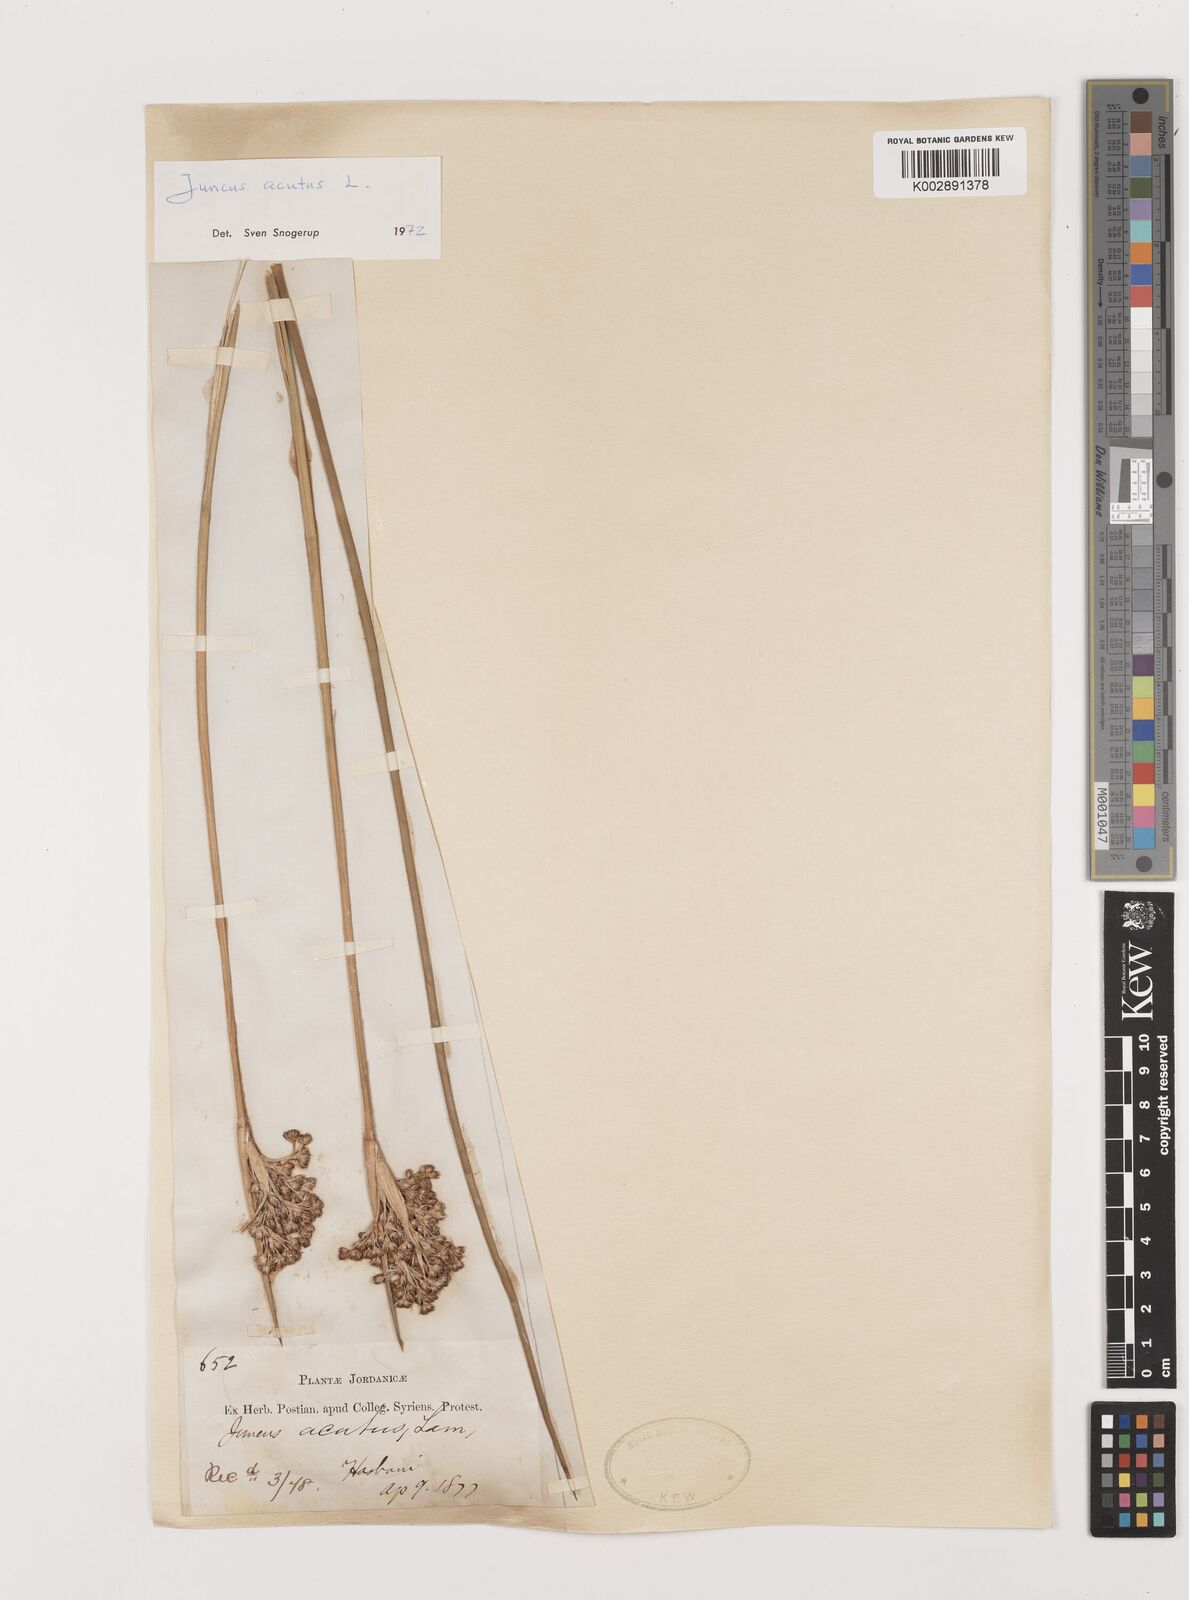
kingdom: Plantae
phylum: Tracheophyta
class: Liliopsida
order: Poales
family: Juncaceae
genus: Juncus
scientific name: Juncus acutus
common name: Sharp rush
